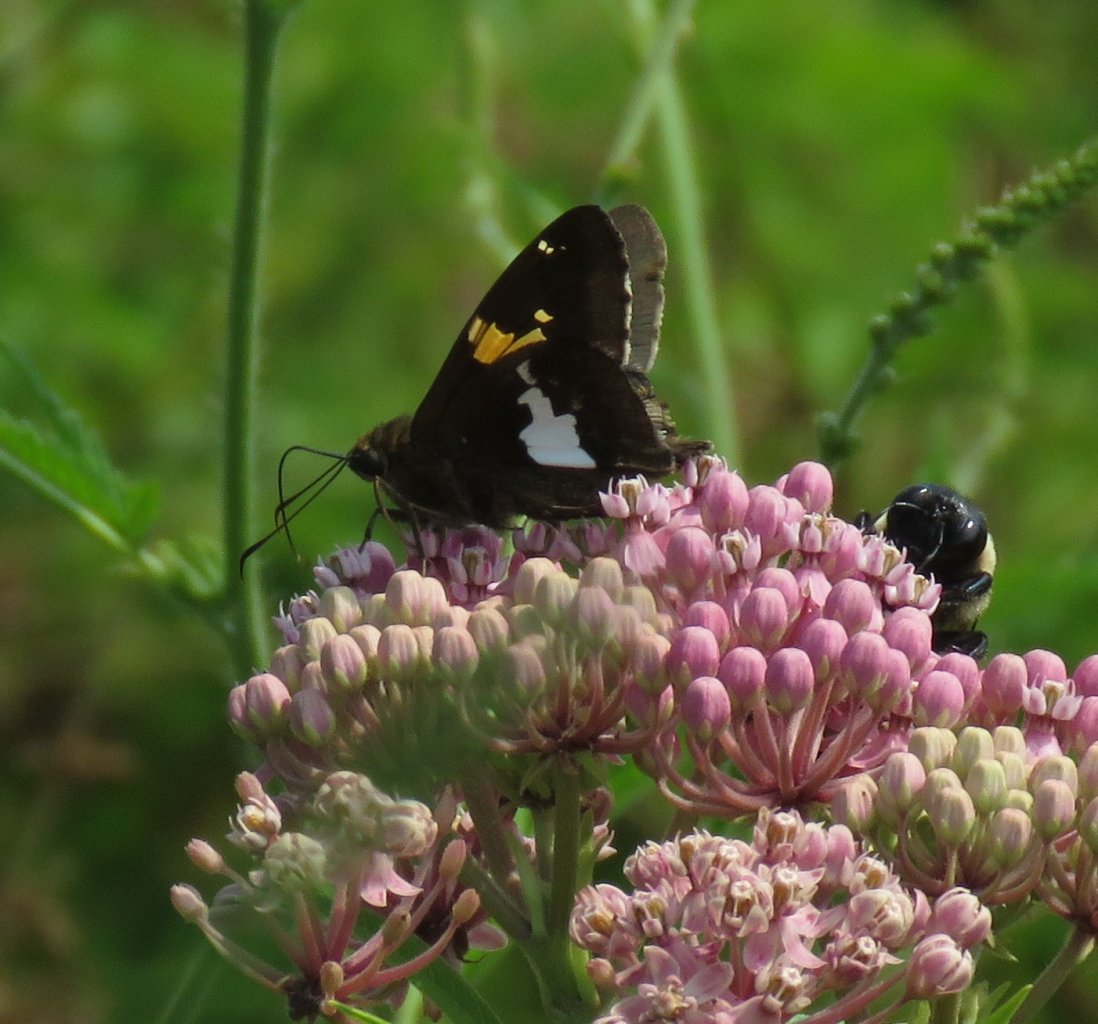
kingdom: Animalia
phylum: Arthropoda
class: Insecta
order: Lepidoptera
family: Hesperiidae
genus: Epargyreus
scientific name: Epargyreus clarus
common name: Silver-spotted Skipper
